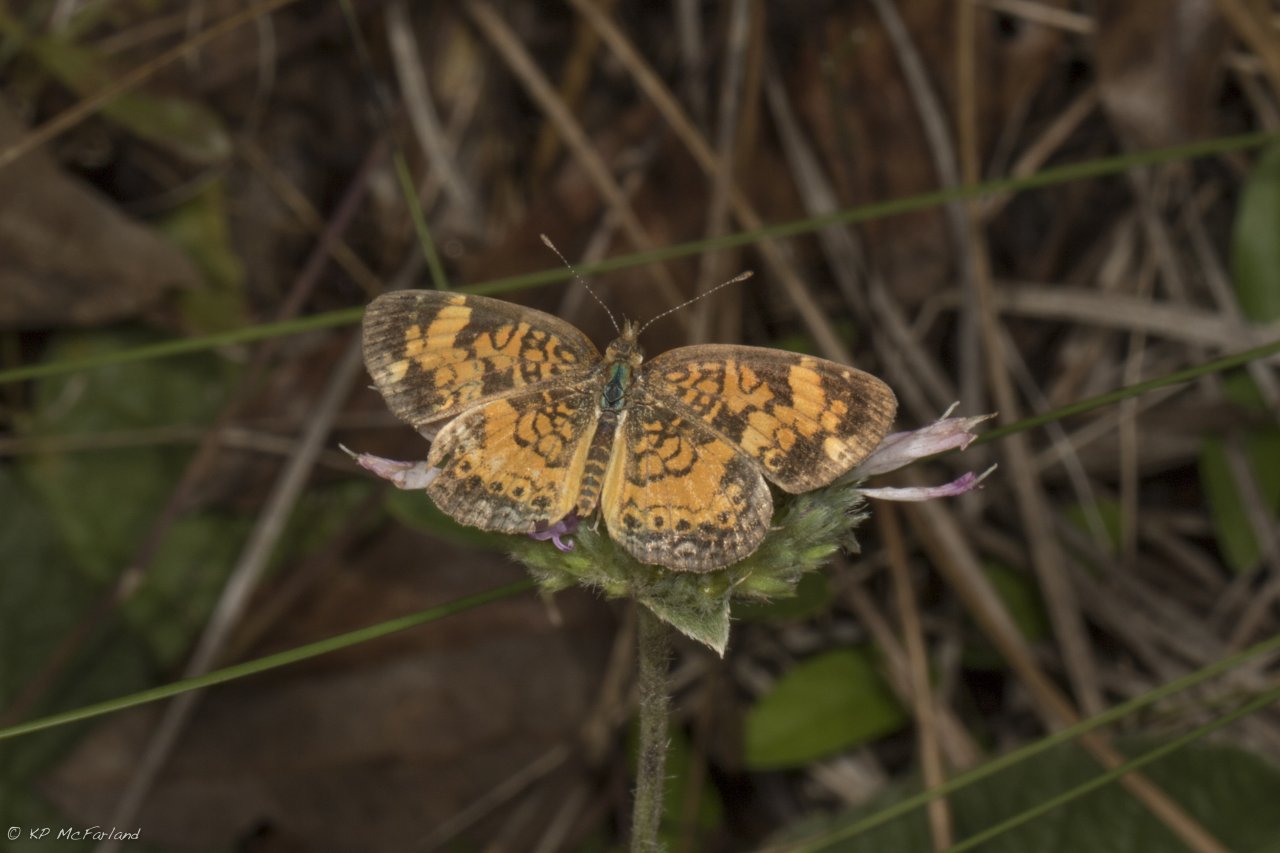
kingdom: Animalia
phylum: Arthropoda
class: Insecta
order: Lepidoptera
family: Nymphalidae
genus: Phyciodes
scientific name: Phyciodes tharos
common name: Pearl Crescent
